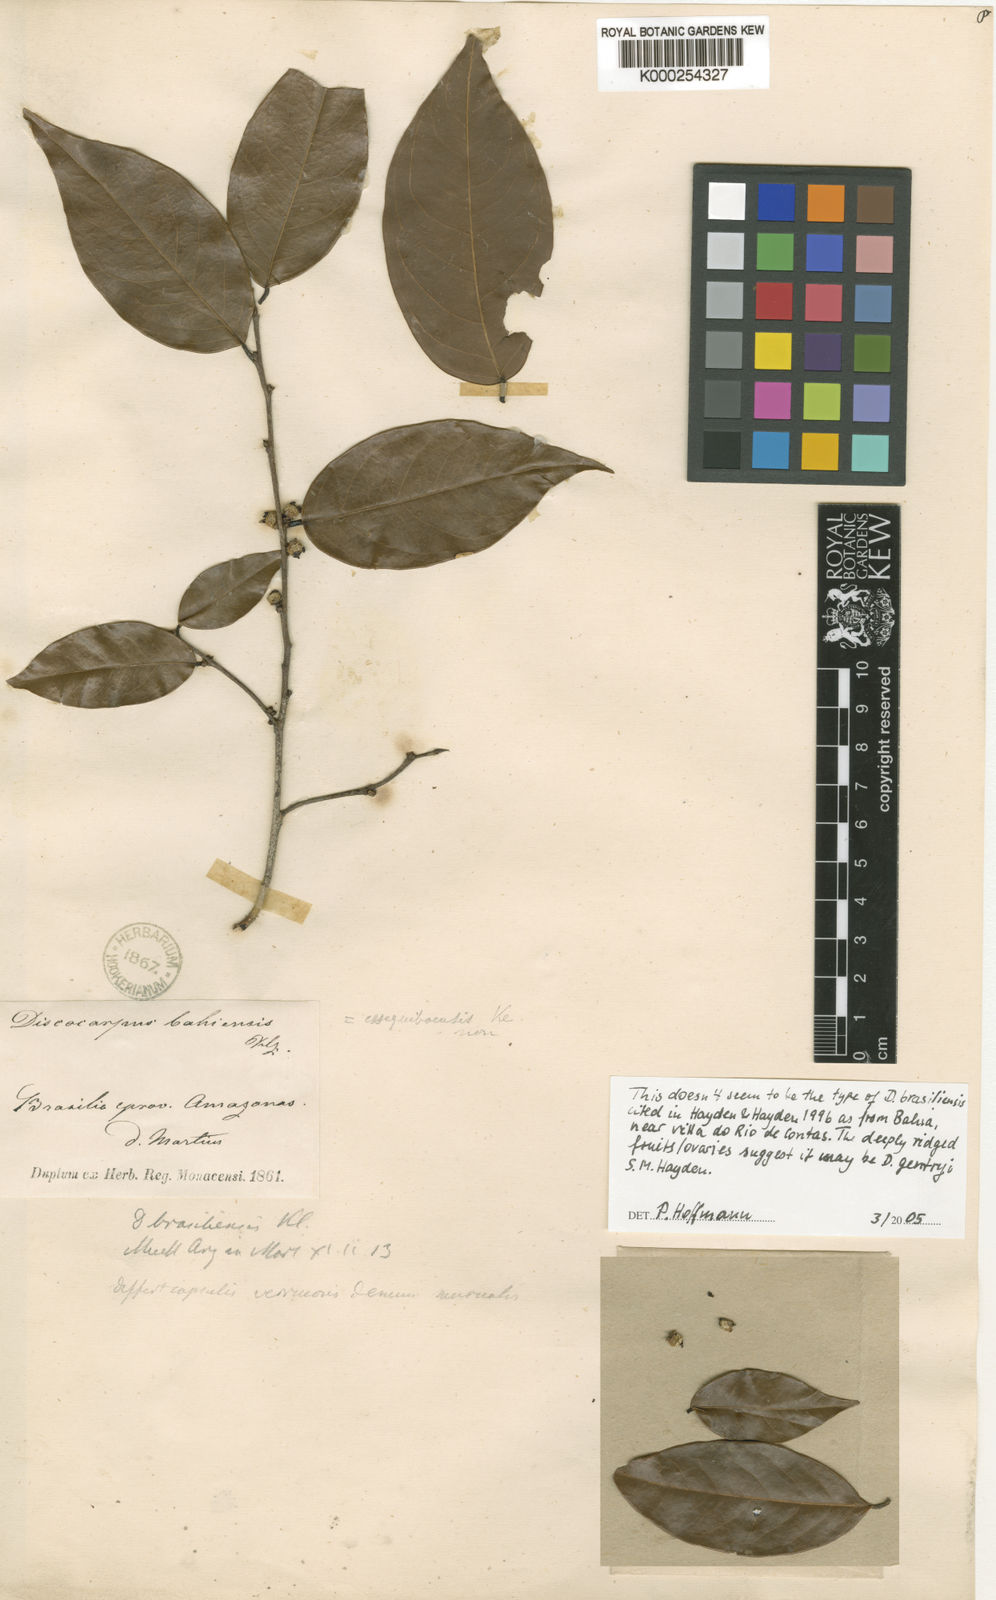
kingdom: Plantae
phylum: Tracheophyta
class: Magnoliopsida
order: Malpighiales
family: Phyllanthaceae
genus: Discocarpus
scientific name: Discocarpus
